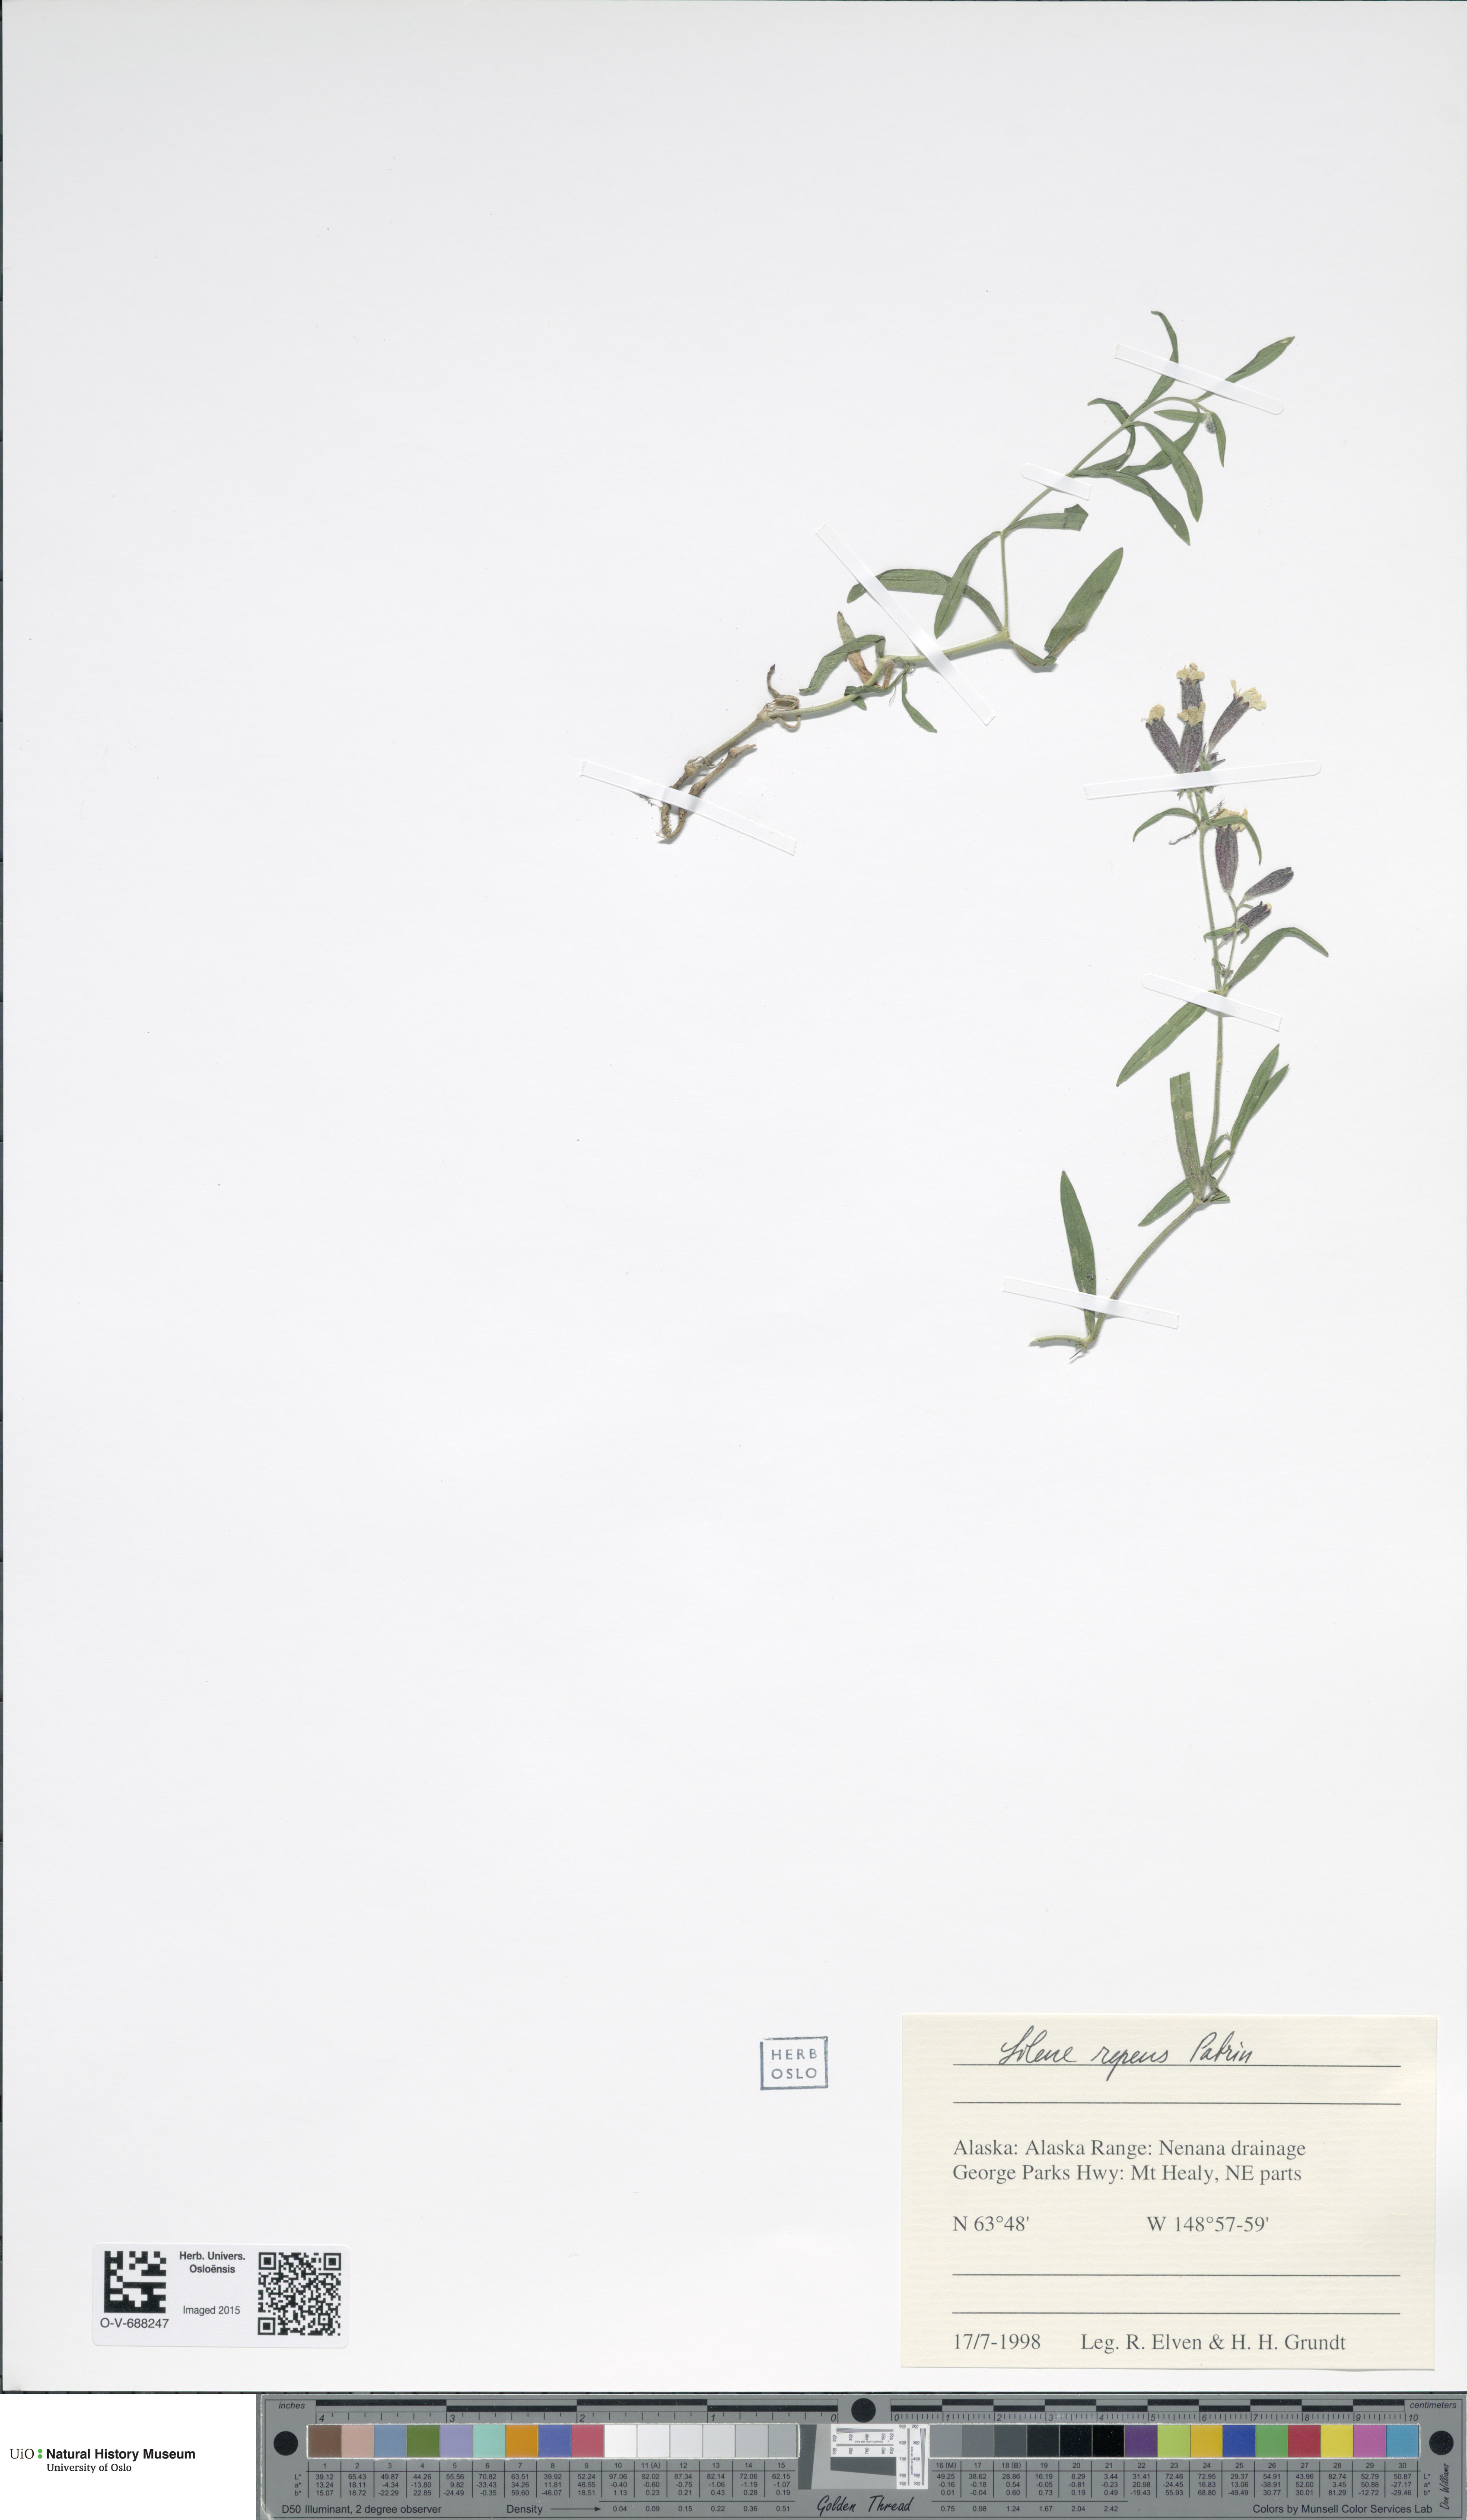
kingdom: Plantae
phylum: Tracheophyta
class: Magnoliopsida
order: Caryophyllales
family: Caryophyllaceae
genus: Silene
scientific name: Silene repens
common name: Pink campion
